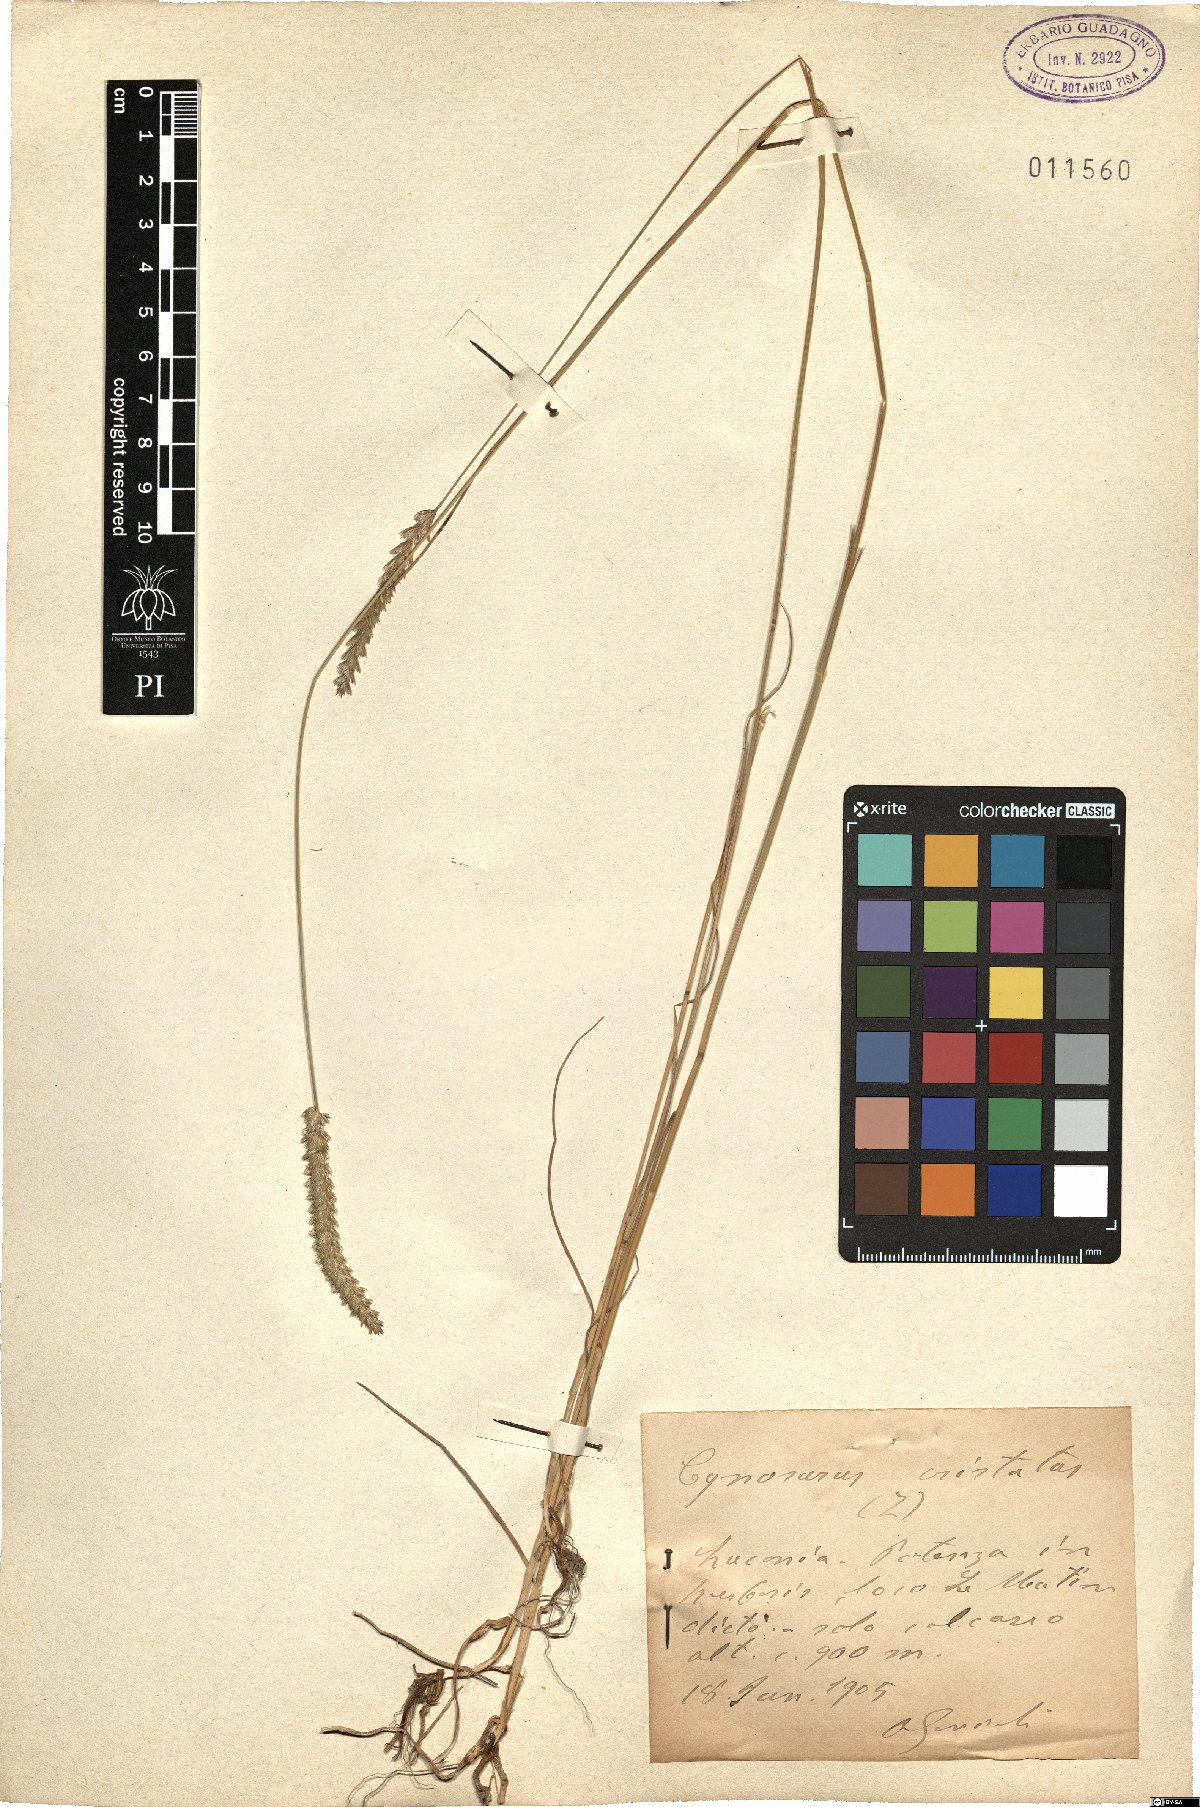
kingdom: Plantae
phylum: Tracheophyta
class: Liliopsida
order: Poales
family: Poaceae
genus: Cynosurus
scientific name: Cynosurus cristatus
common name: Crested dog's-tail
